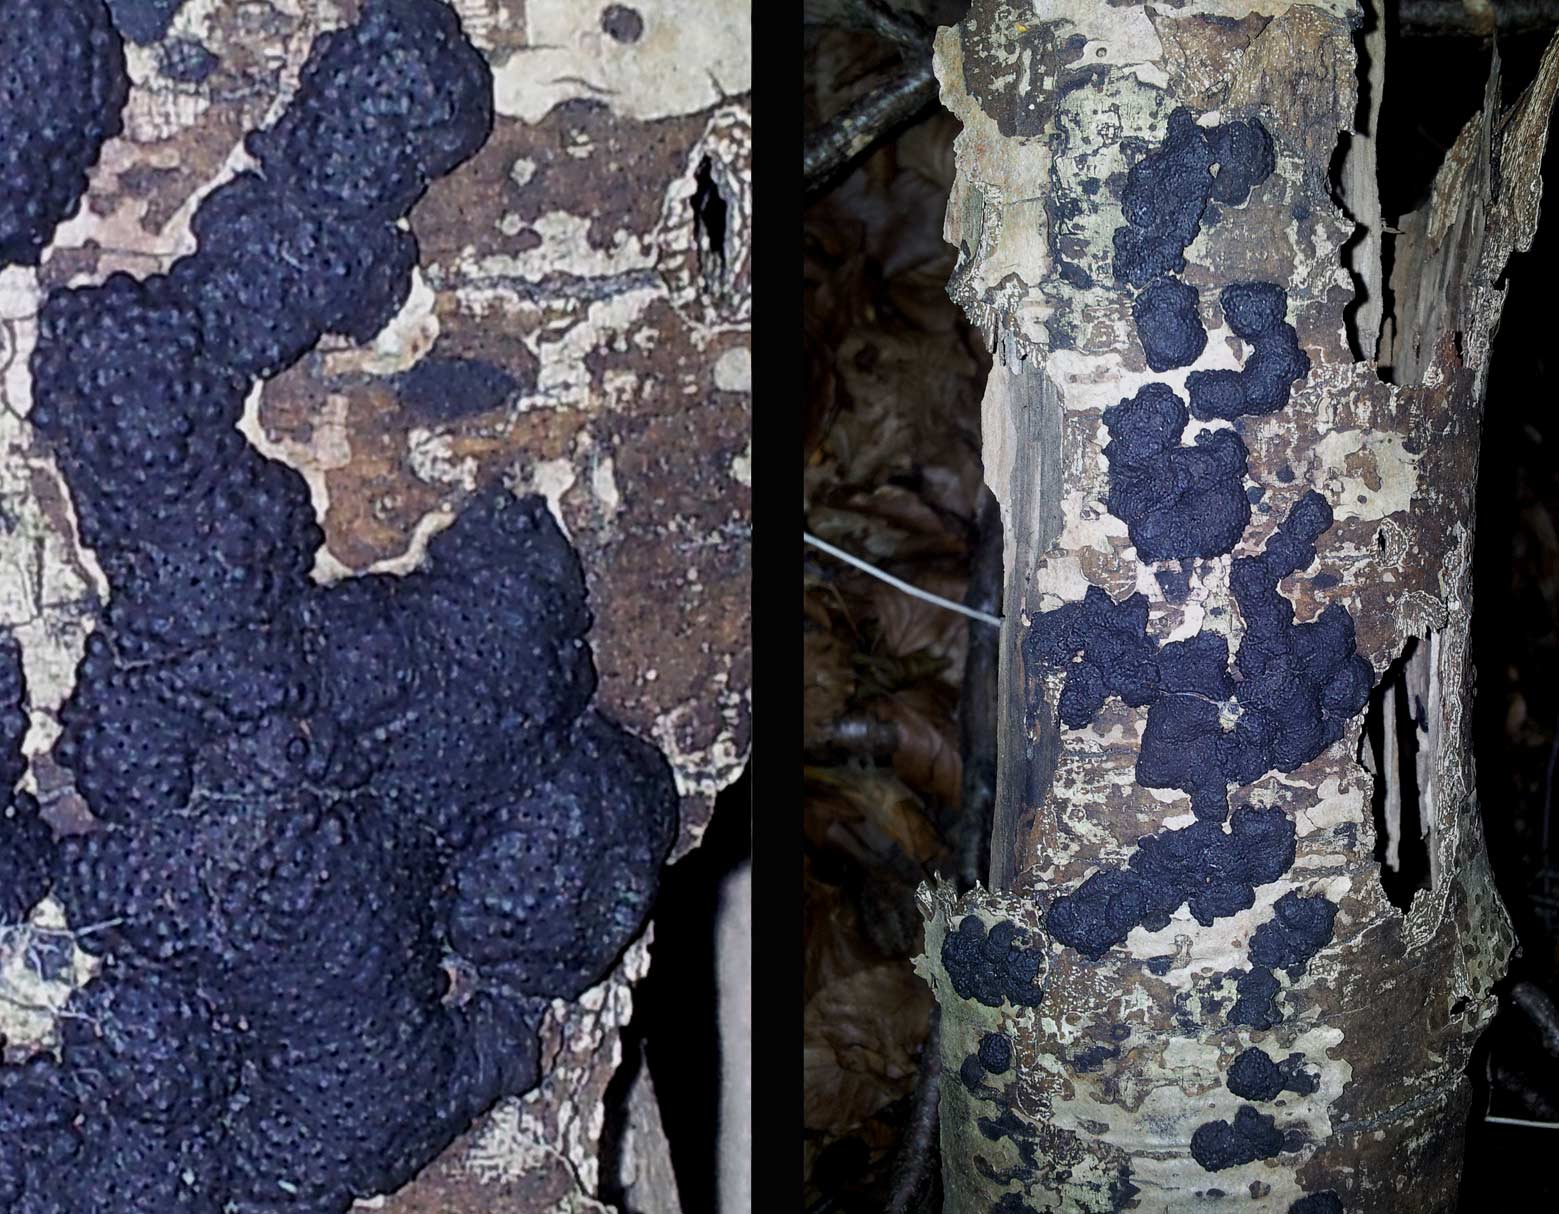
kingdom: Fungi
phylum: Ascomycota
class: Sordariomycetes
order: Xylariales
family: Hypoxylaceae
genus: Jackrogersella
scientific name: Jackrogersella cohaerens
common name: sammenflydende kulbær
